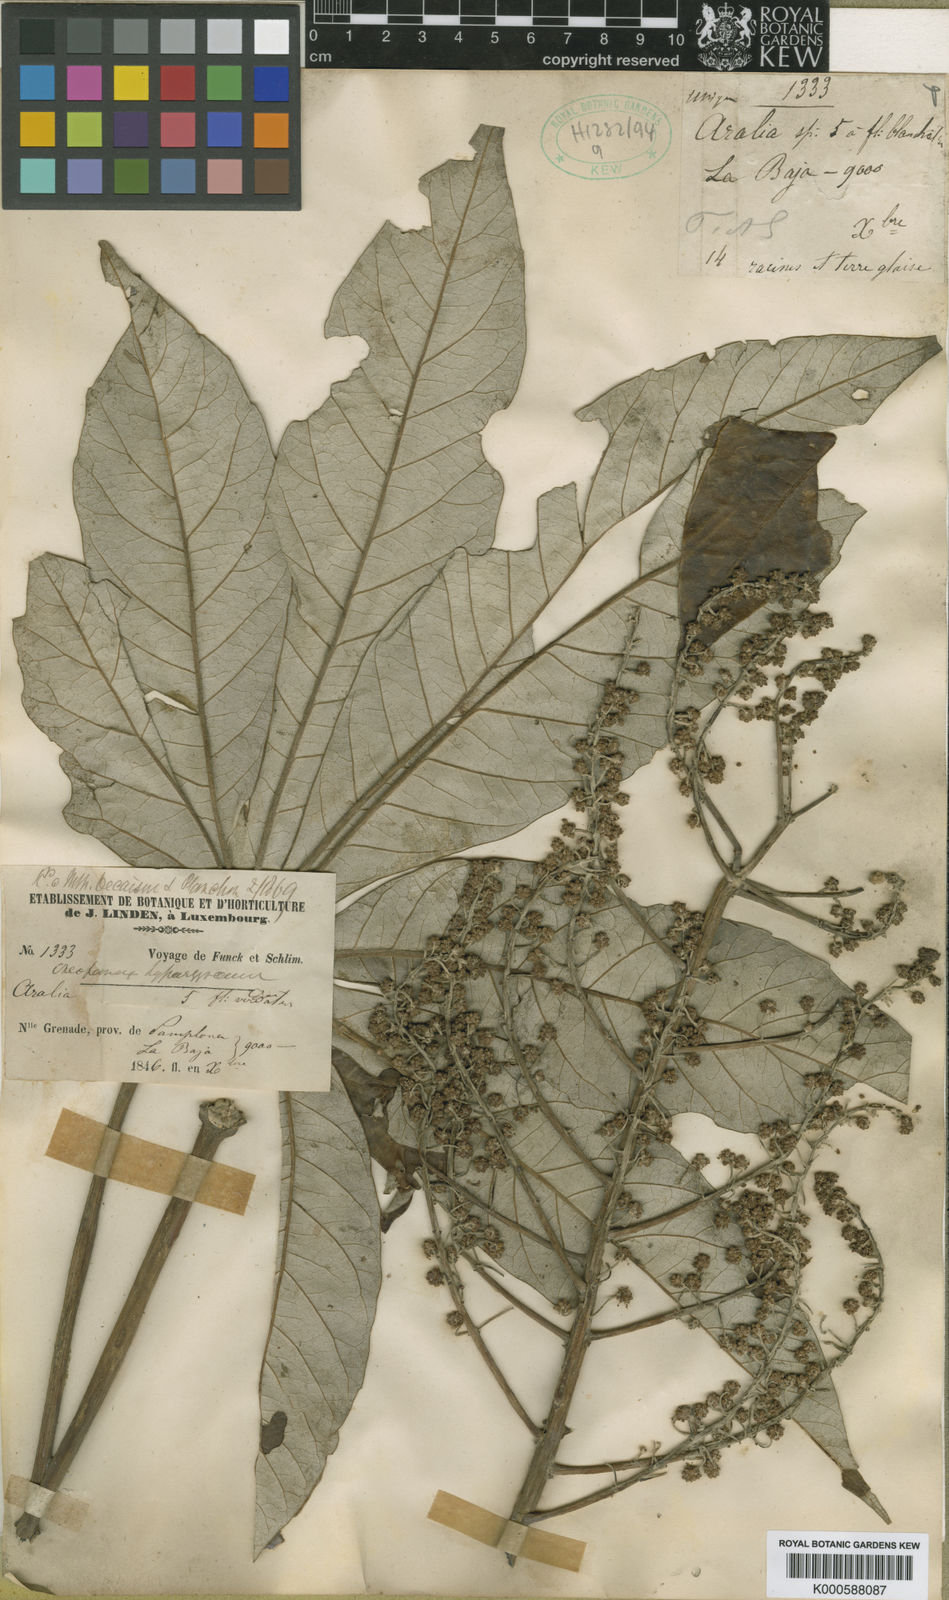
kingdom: Plantae
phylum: Tracheophyta
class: Magnoliopsida
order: Apiales
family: Araliaceae
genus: Oreopanax
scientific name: Oreopanax
